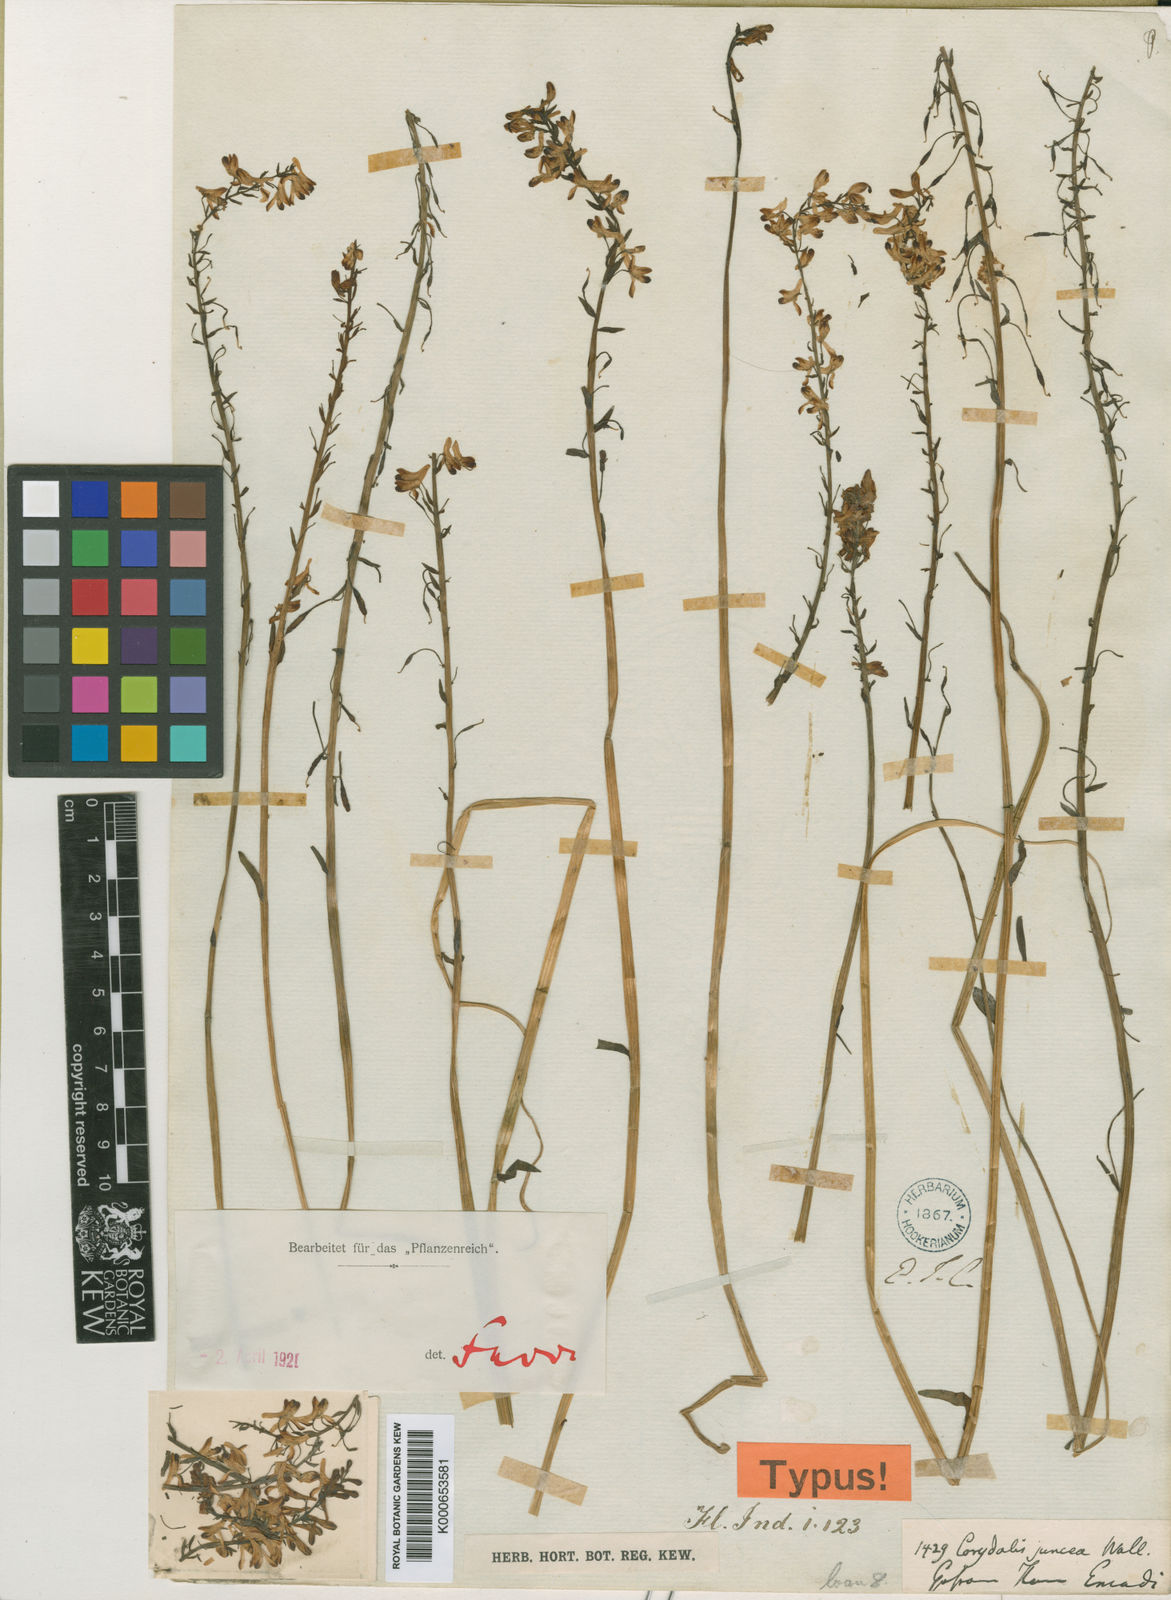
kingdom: Plantae
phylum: Tracheophyta
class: Magnoliopsida
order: Ranunculales
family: Papaveraceae
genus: Corydalis
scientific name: Corydalis juncea
